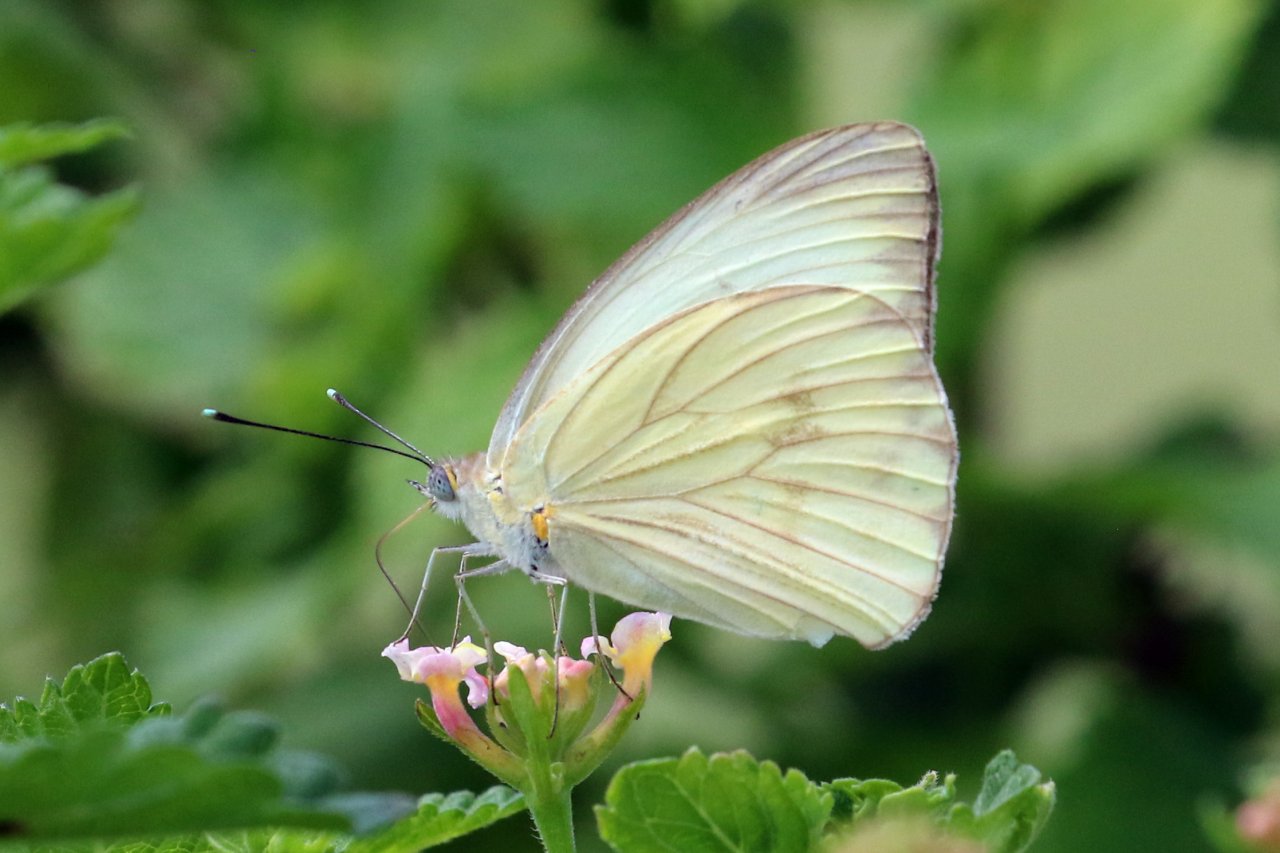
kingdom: Animalia
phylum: Arthropoda
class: Insecta
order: Lepidoptera
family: Pieridae
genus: Ascia
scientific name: Ascia monuste
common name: Great Southern White
